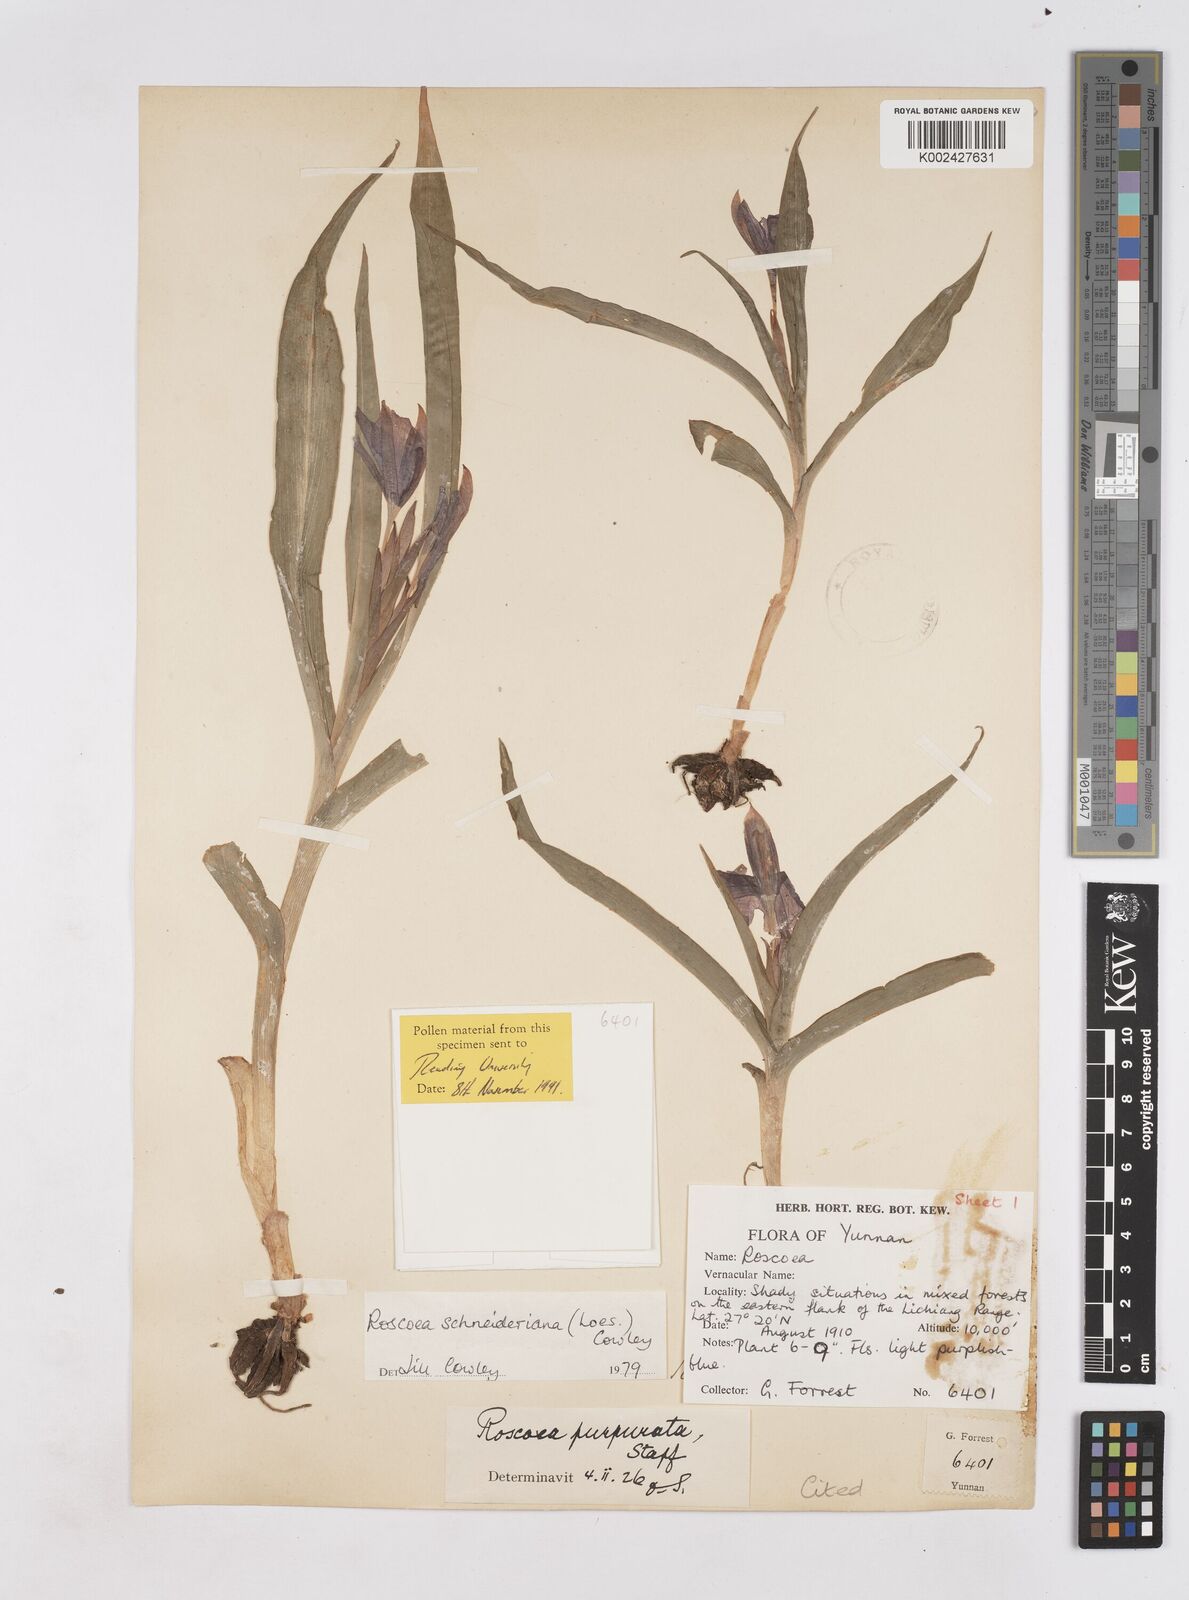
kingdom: Plantae
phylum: Tracheophyta
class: Liliopsida
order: Zingiberales
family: Zingiberaceae
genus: Roscoea
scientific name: Roscoea schneideriana
